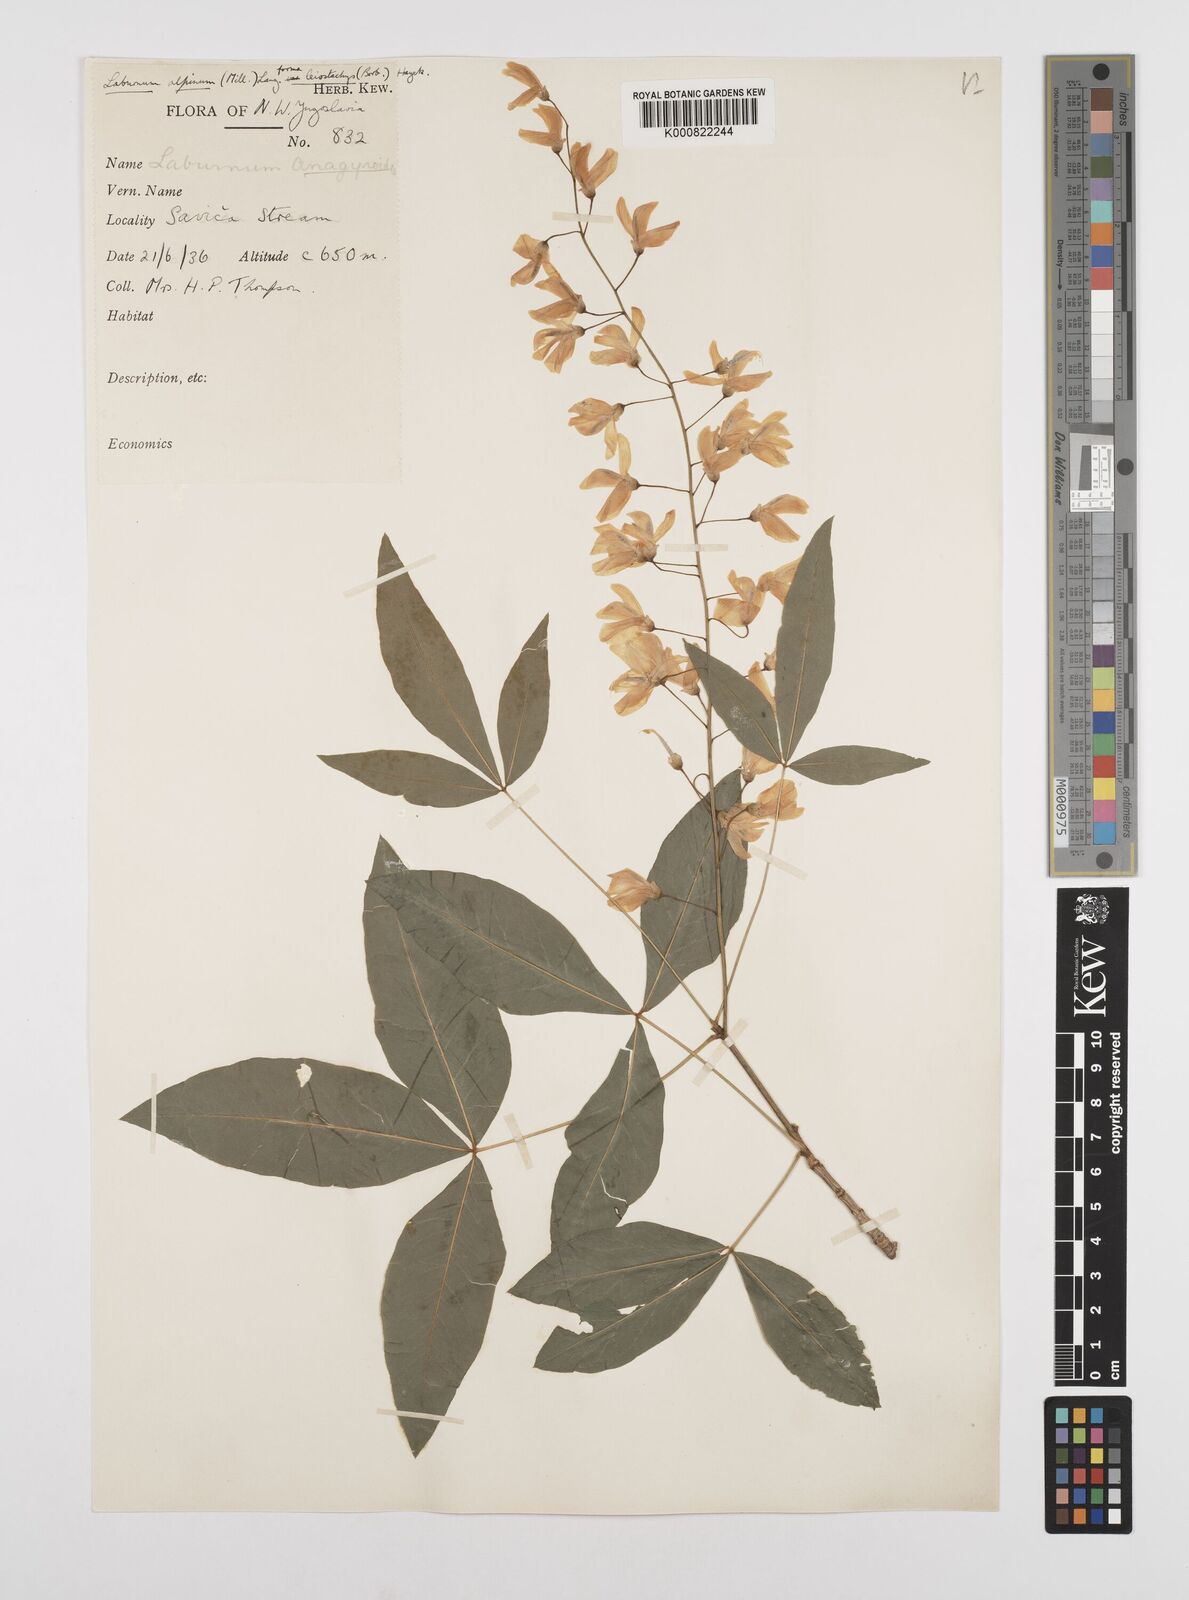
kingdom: Plantae
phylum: Tracheophyta
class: Magnoliopsida
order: Fabales
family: Fabaceae
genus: Laburnum
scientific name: Laburnum anagyroides
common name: Laburnum
